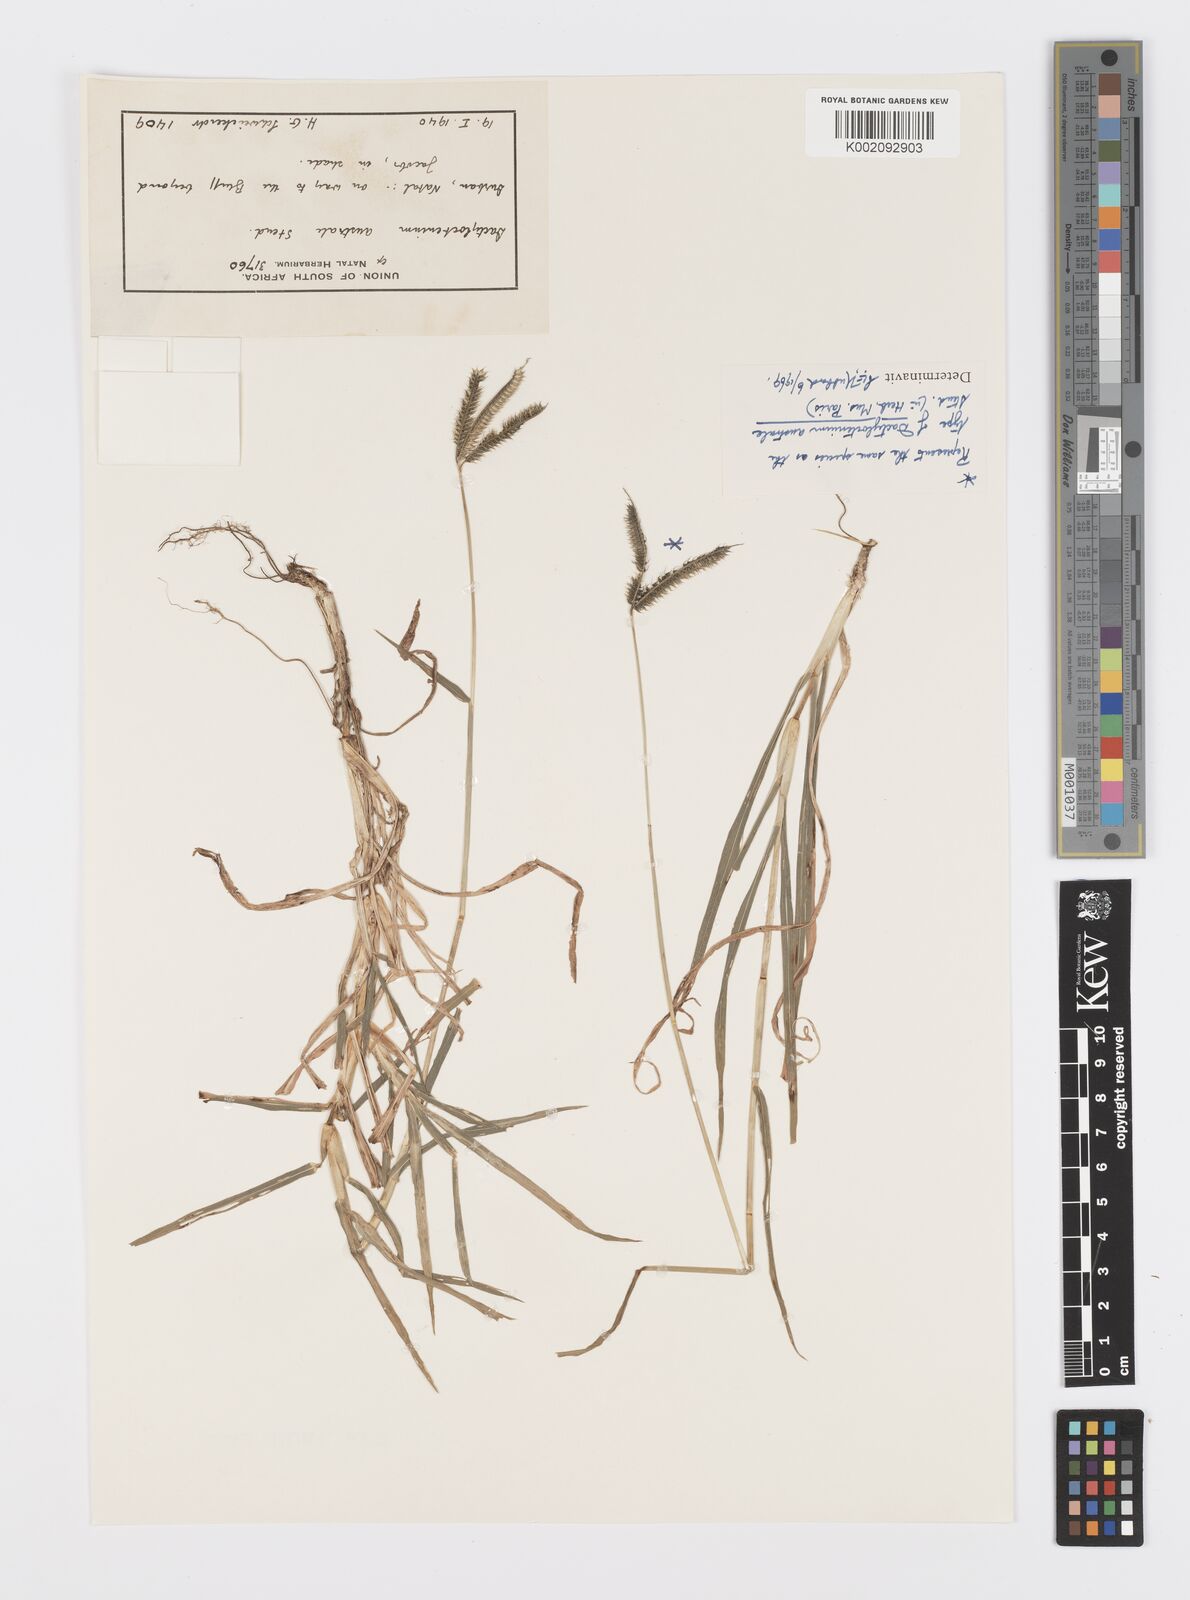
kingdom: Plantae
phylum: Tracheophyta
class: Liliopsida
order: Poales
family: Poaceae
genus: Dactyloctenium
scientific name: Dactyloctenium australe
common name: Durban grass
